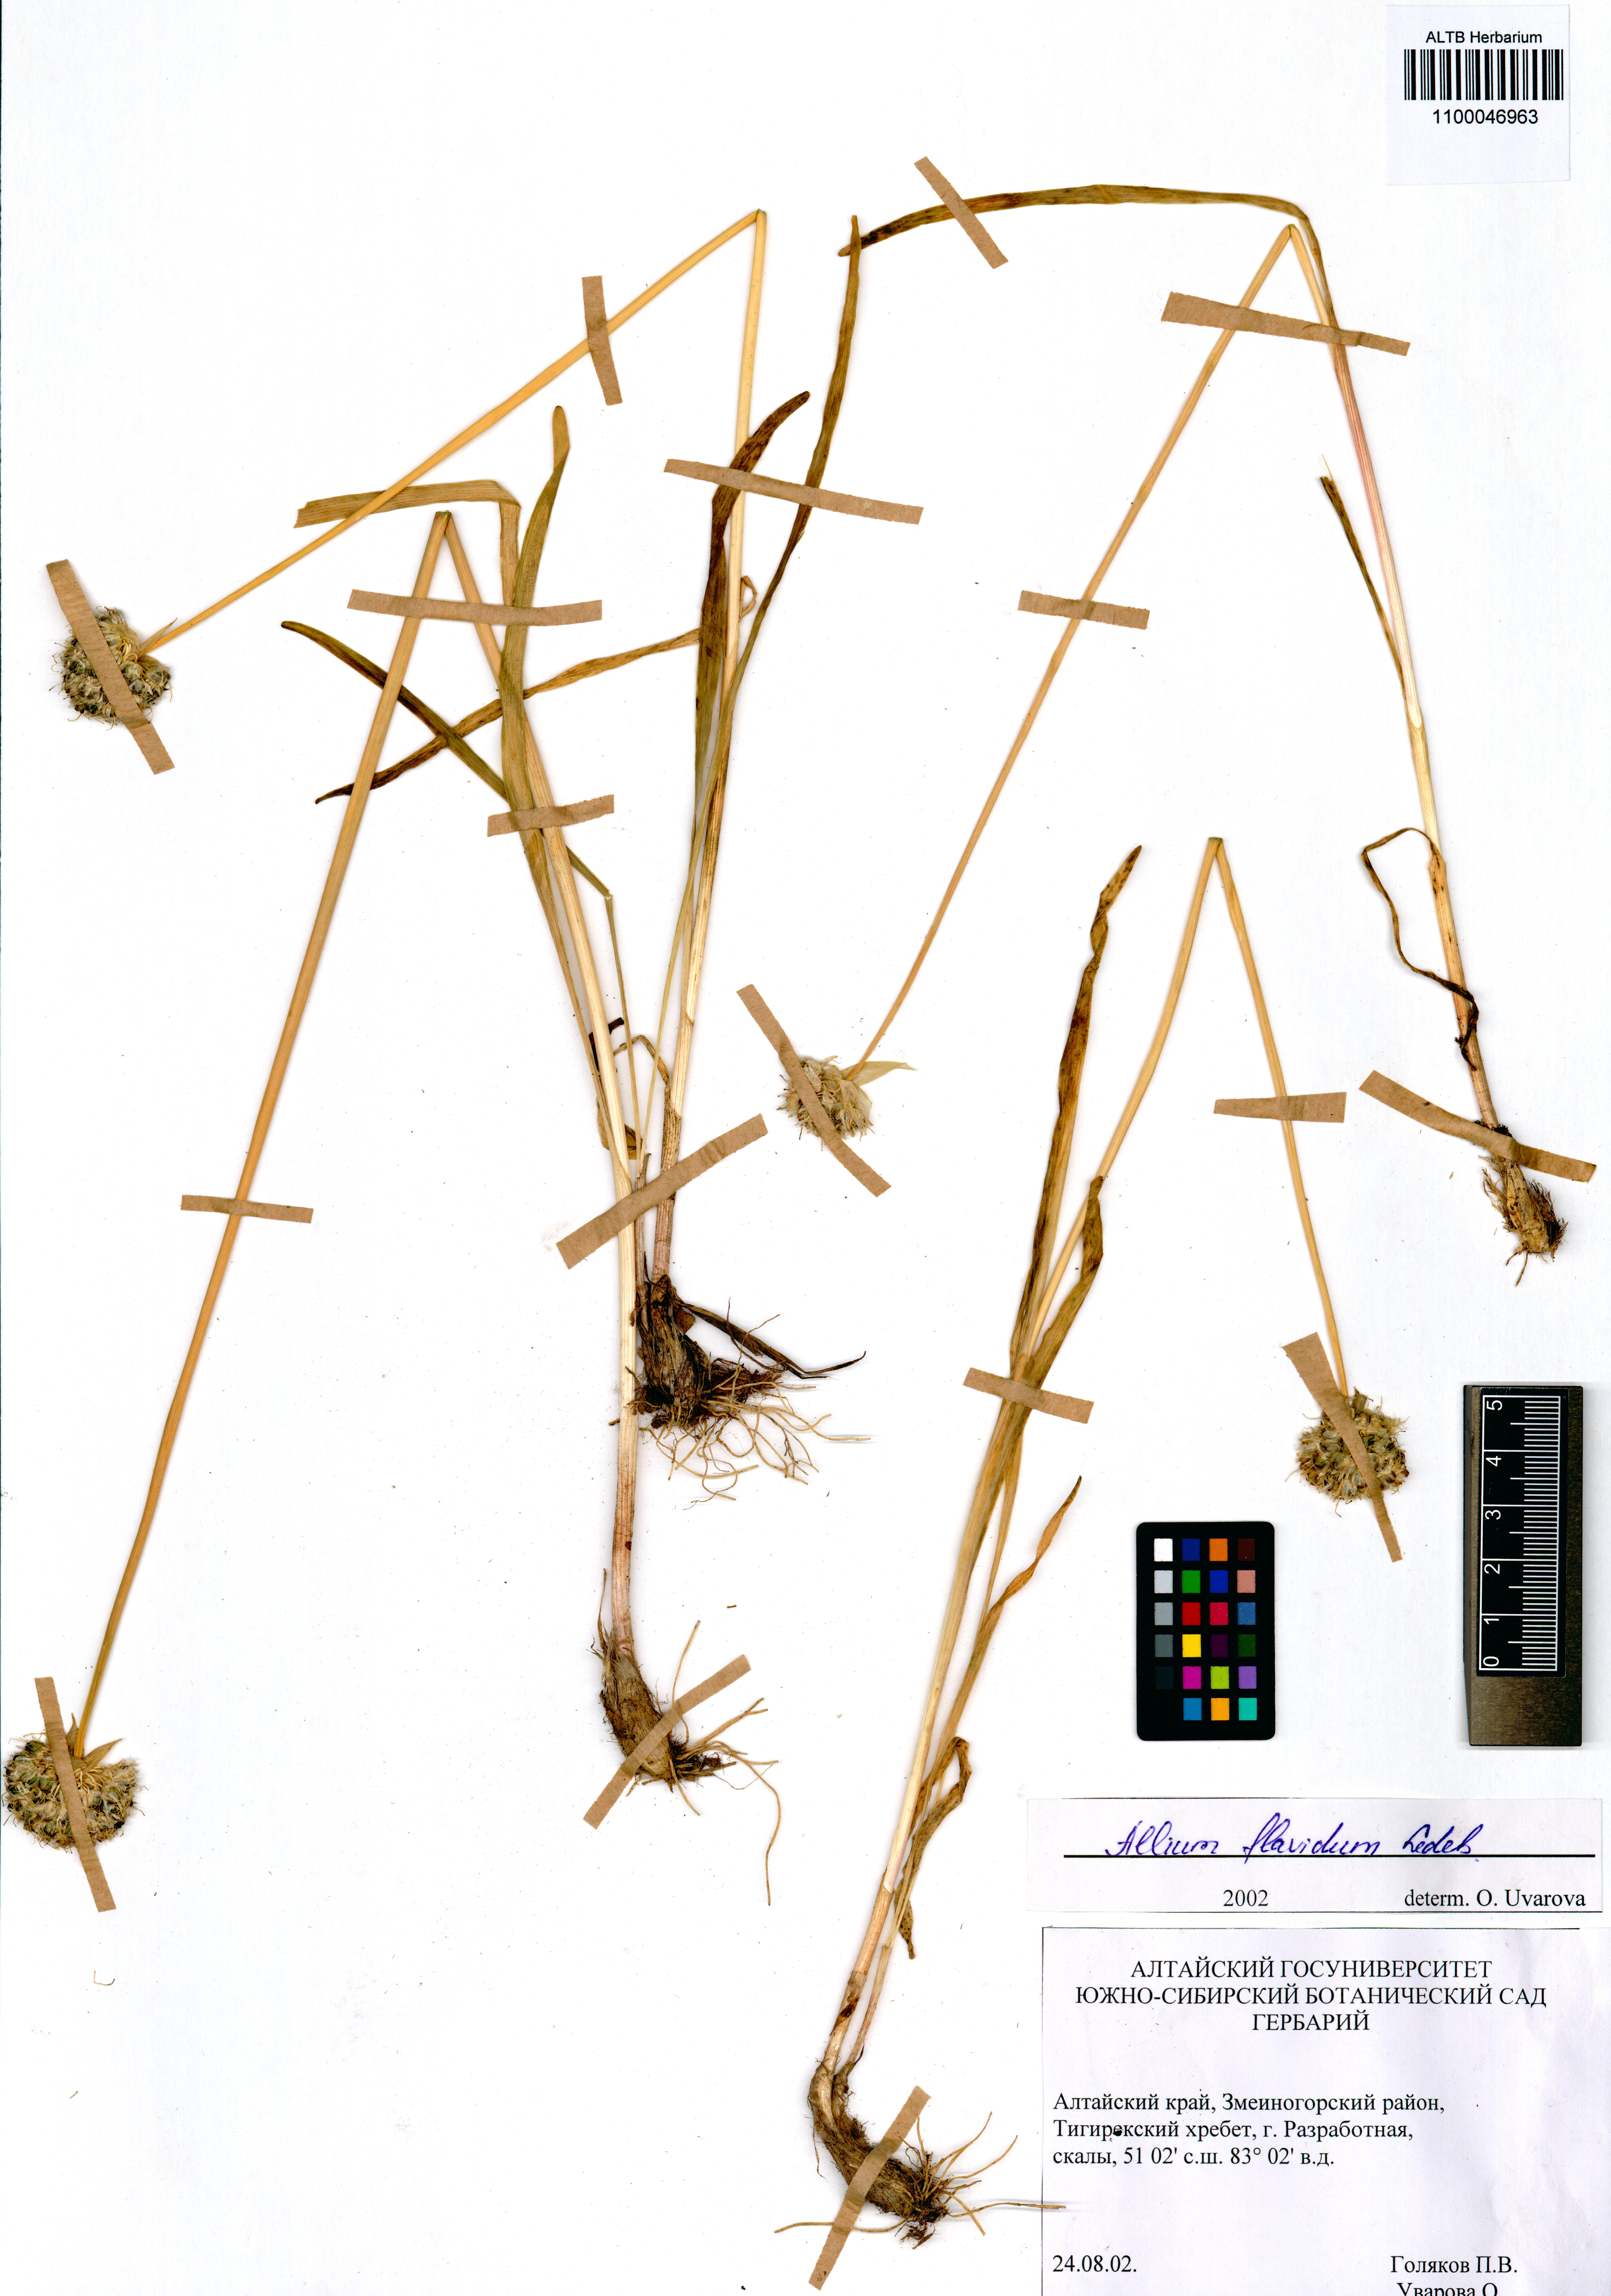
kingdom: Plantae
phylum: Tracheophyta
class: Liliopsida
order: Asparagales
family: Amaryllidaceae
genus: Allium
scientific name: Allium flavidum
